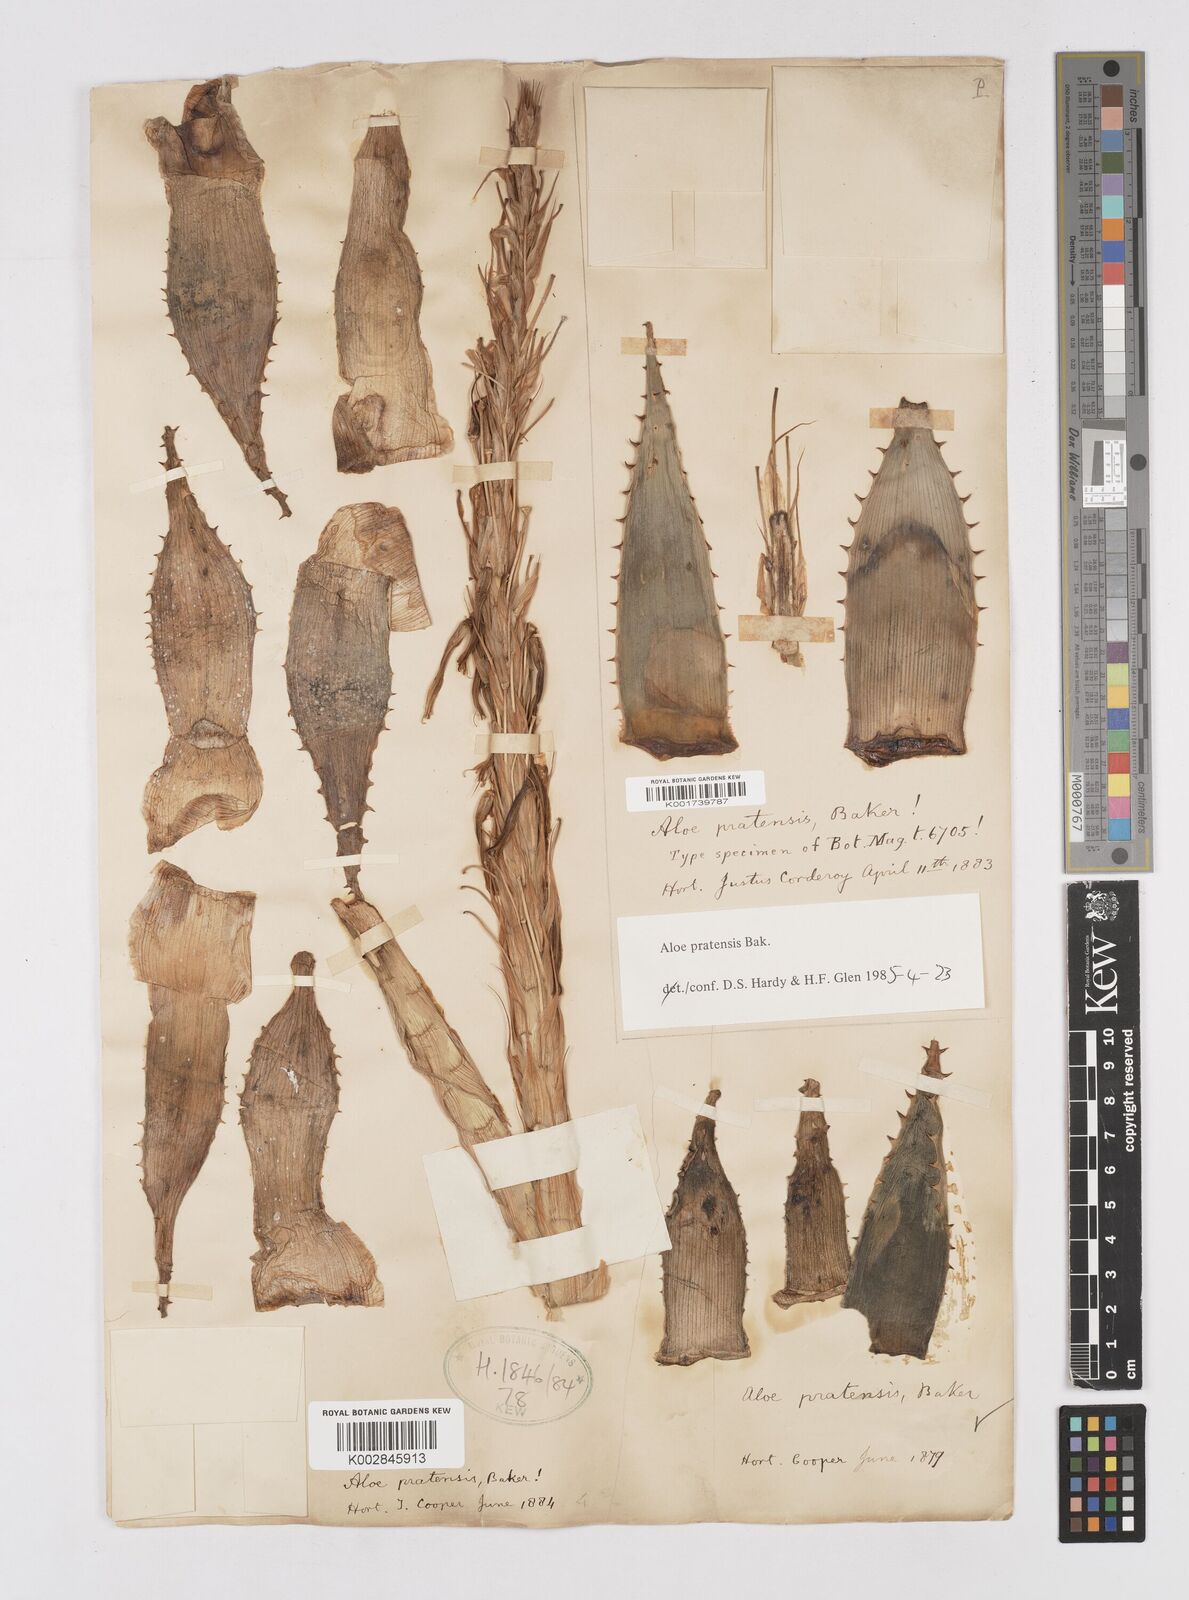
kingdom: Plantae
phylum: Tracheophyta
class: Liliopsida
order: Asparagales
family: Asphodelaceae
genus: Aloe
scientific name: Aloe pratensis
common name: Meadow aloe
